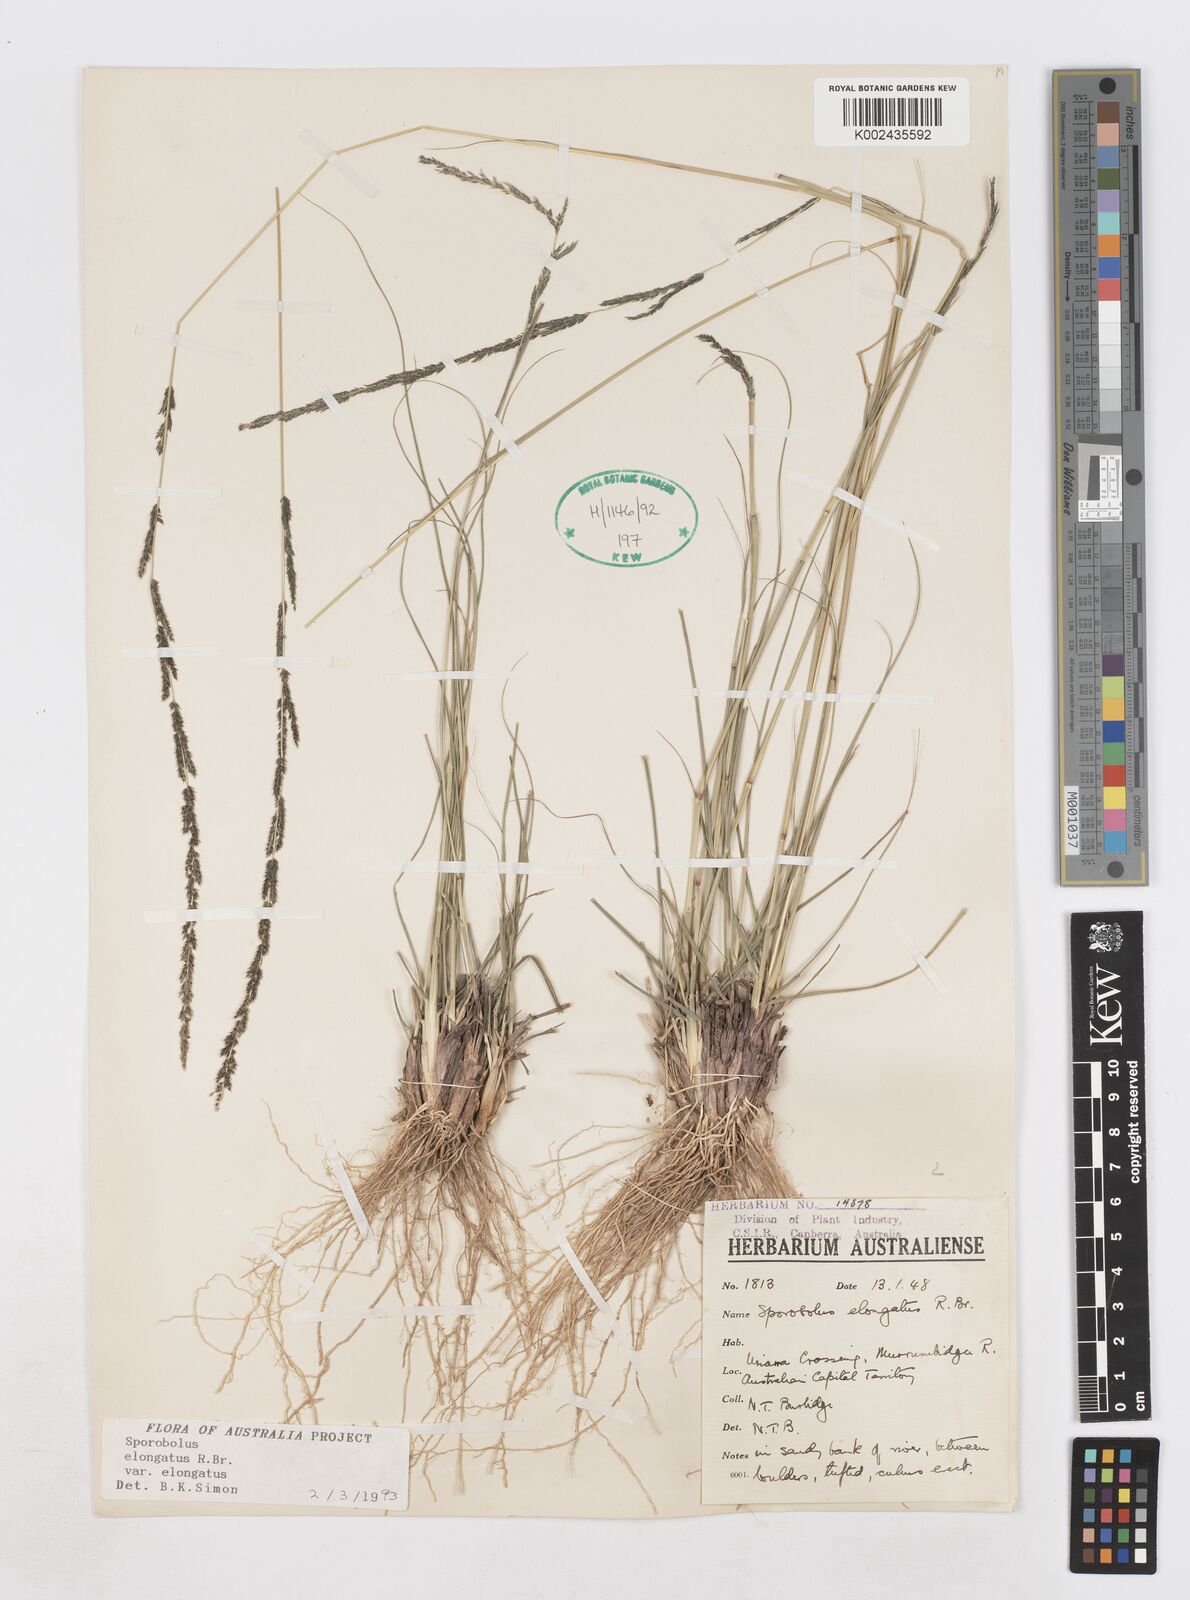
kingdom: Plantae
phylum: Tracheophyta
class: Liliopsida
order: Poales
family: Poaceae
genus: Sporobolus
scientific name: Sporobolus elongatus
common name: Rat tail grass
